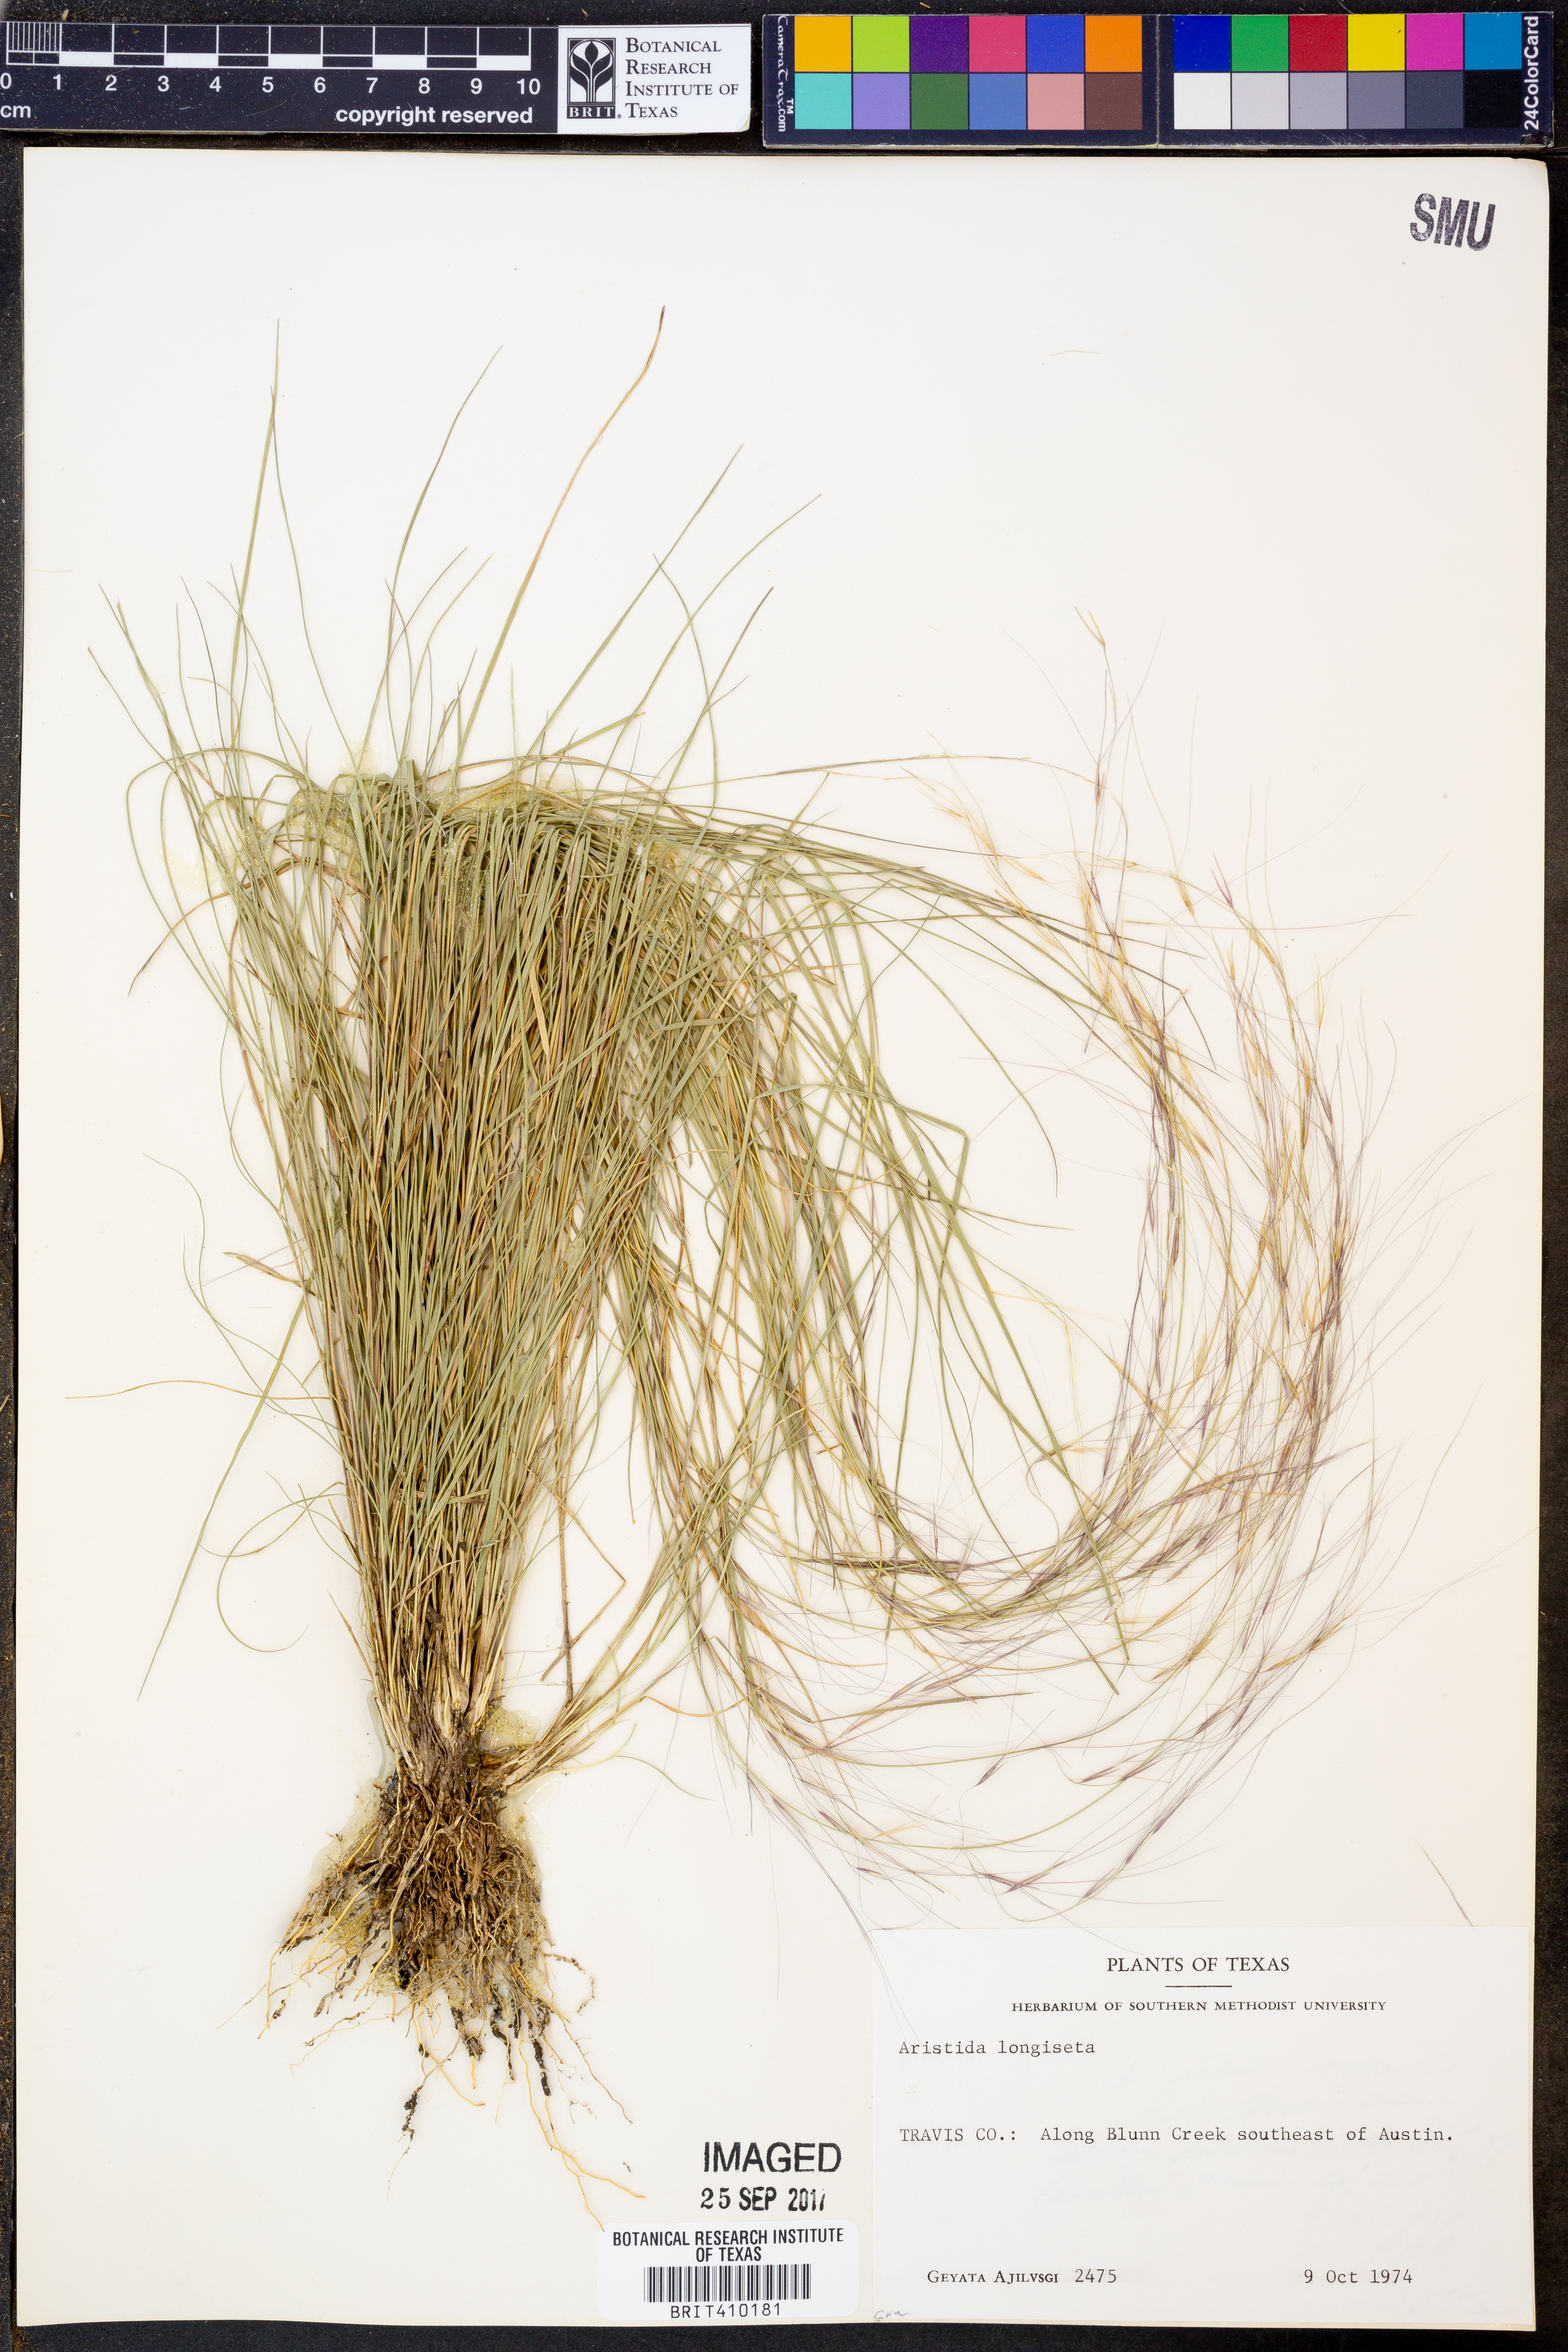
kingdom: Plantae
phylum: Tracheophyta
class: Liliopsida
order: Poales
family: Poaceae
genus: Aristida
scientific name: Aristida longiseta
